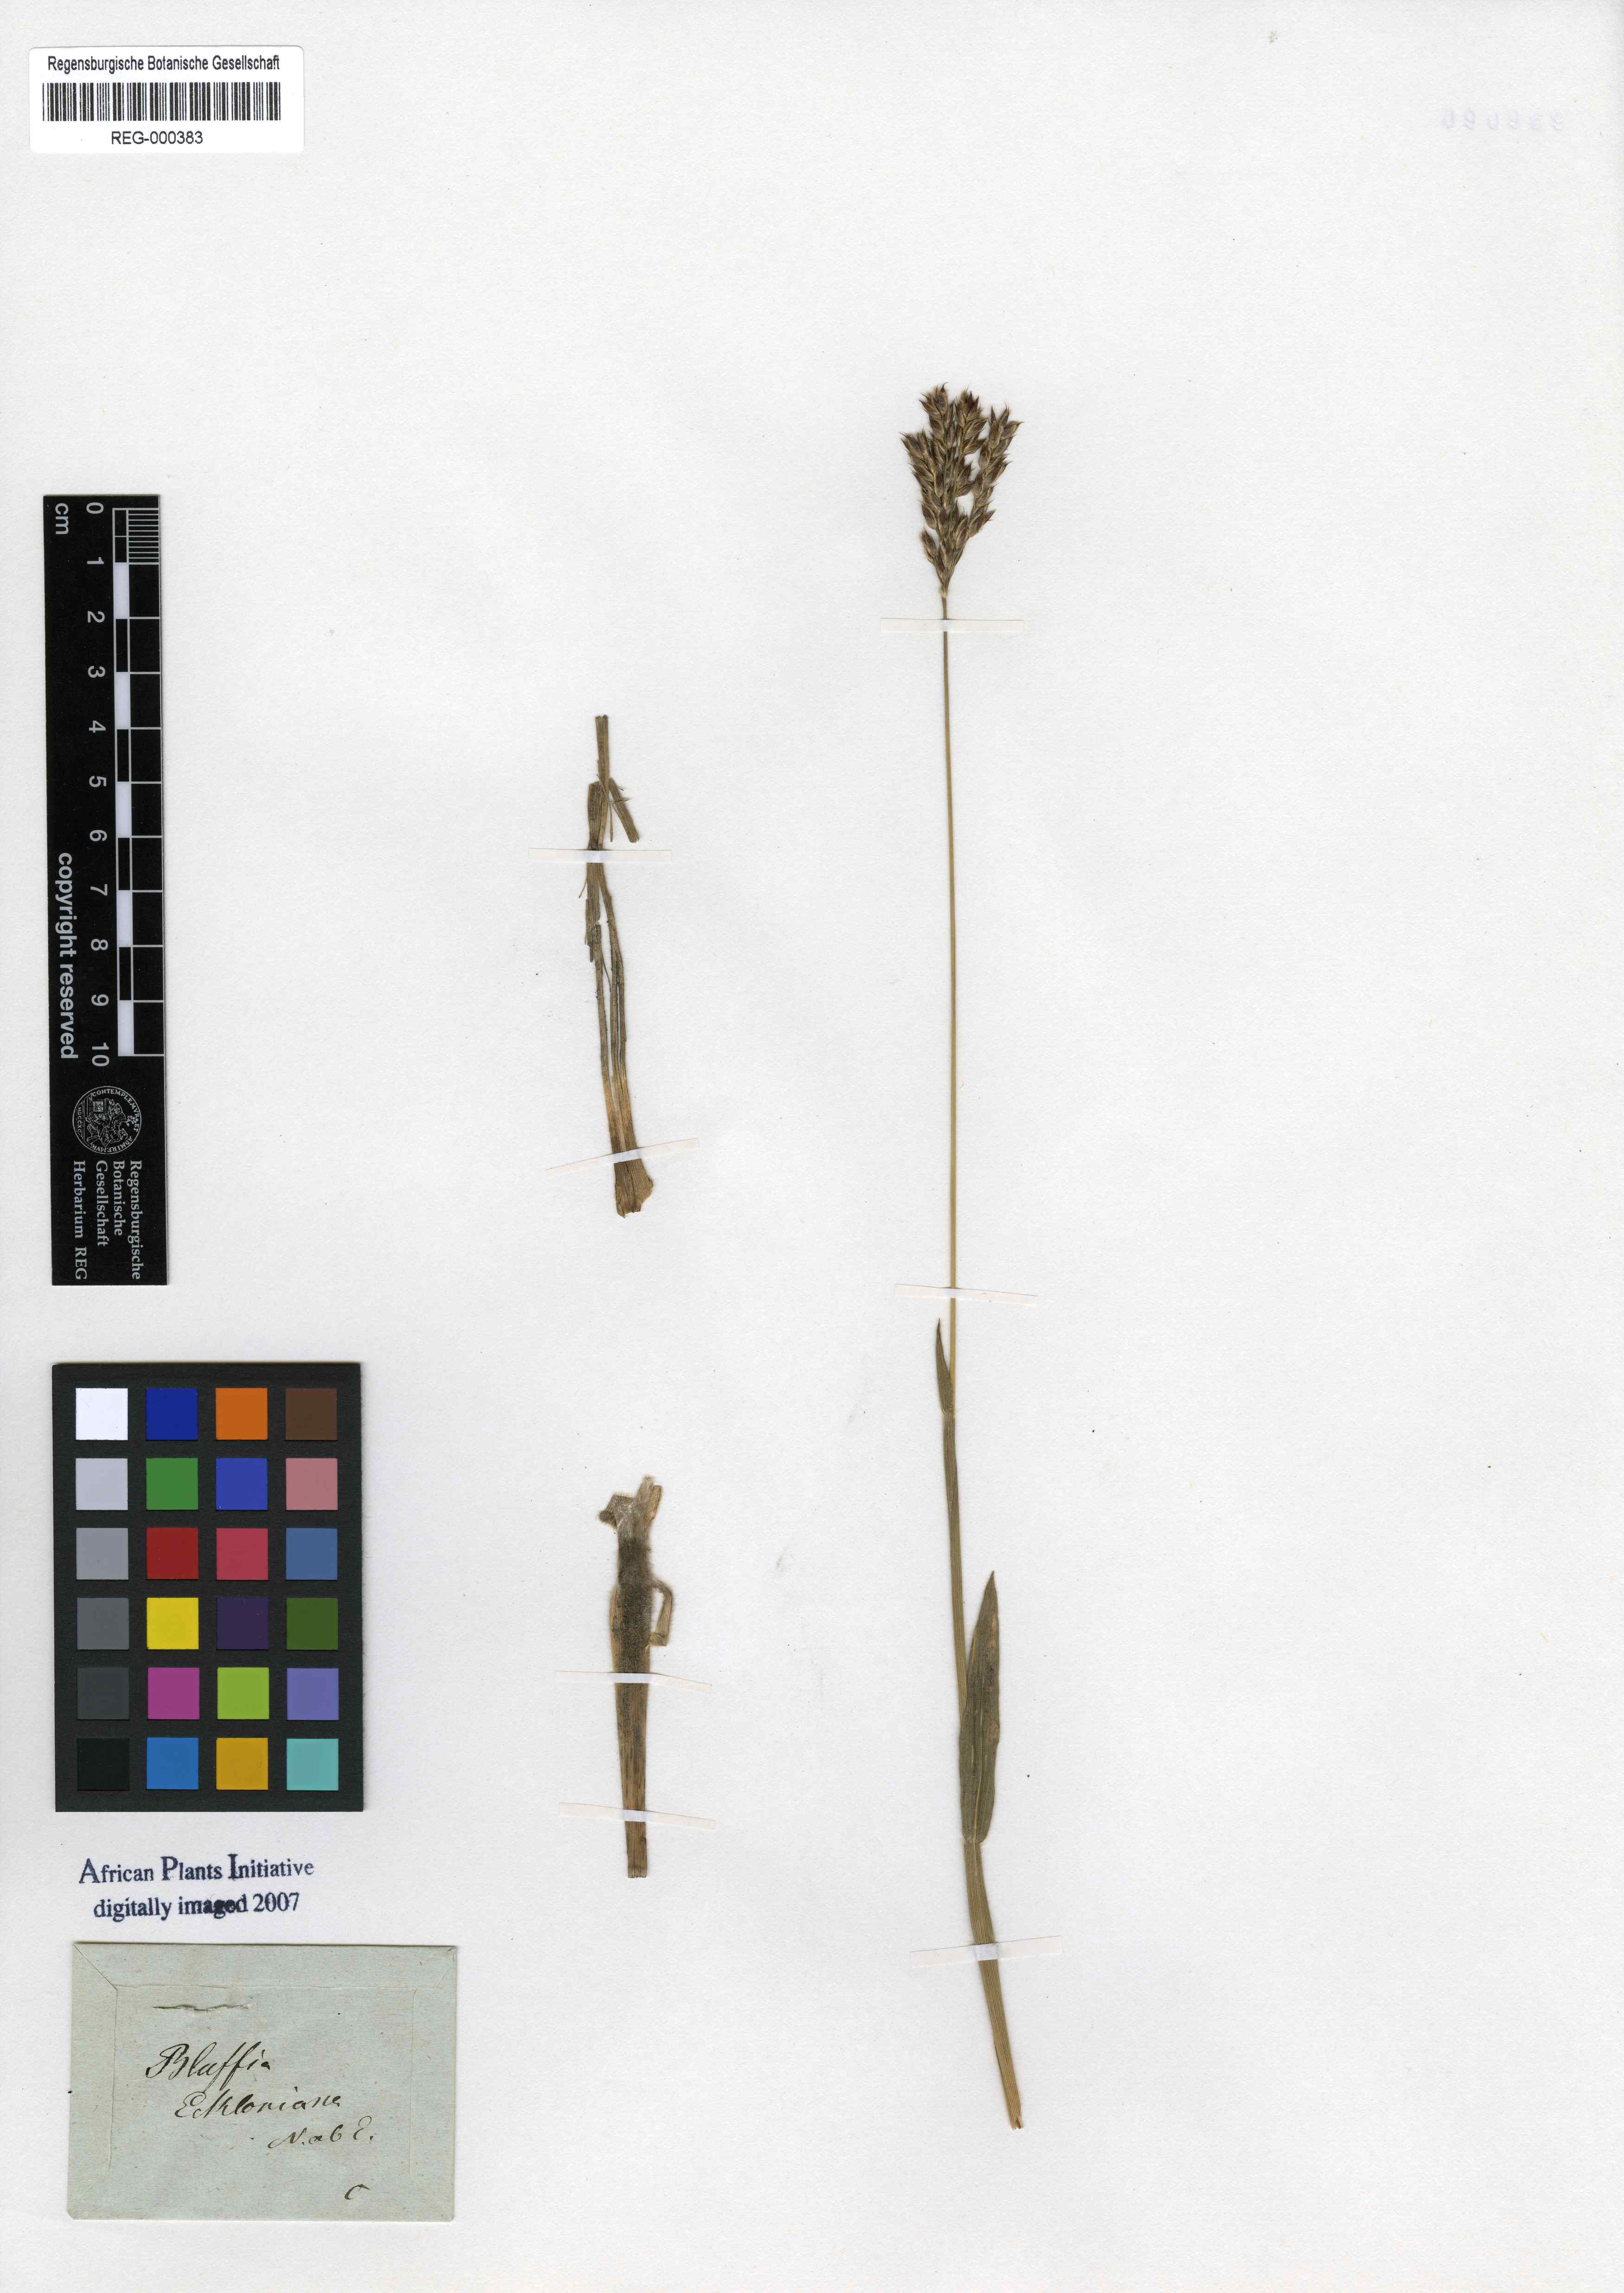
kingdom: Plantae
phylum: Tracheophyta
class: Liliopsida
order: Poales
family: Poaceae
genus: Alloteropsis
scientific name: Alloteropsis semialata
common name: Cockatoo grass
